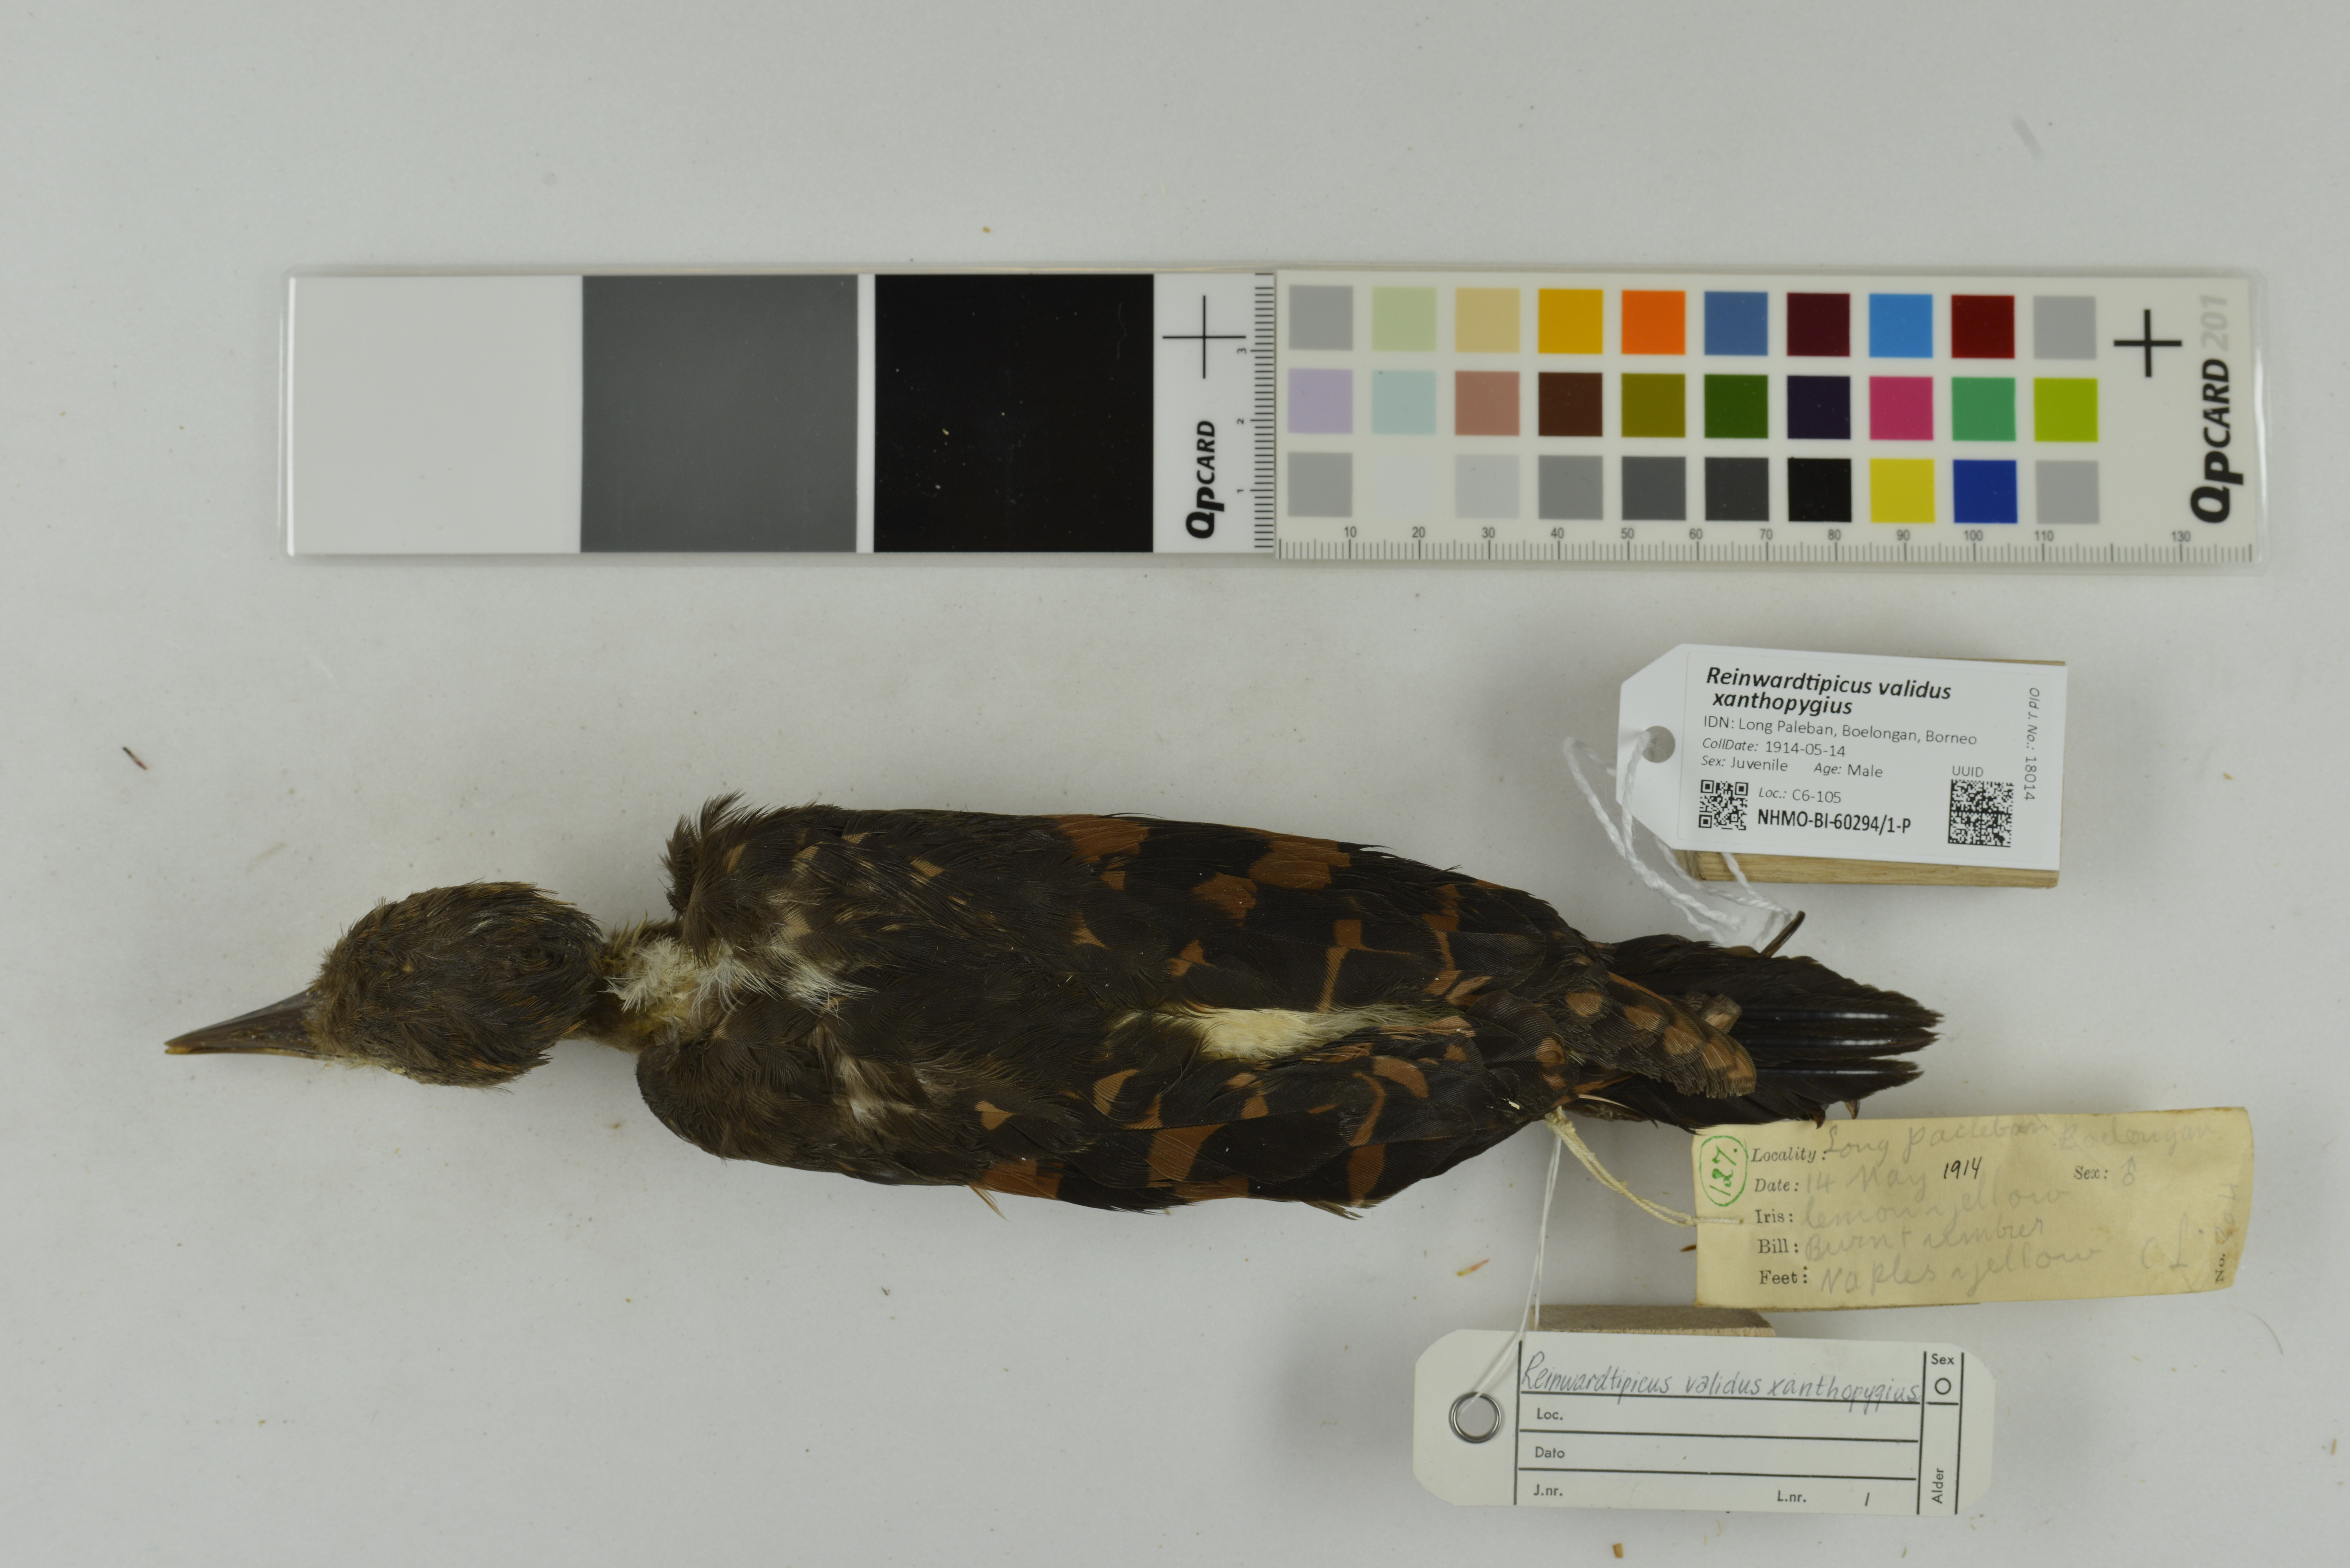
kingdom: Animalia
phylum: Chordata
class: Aves
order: Piciformes
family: Picidae
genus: Reinwardtipicus
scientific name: Reinwardtipicus validus
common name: Orange-backed woodpecker
